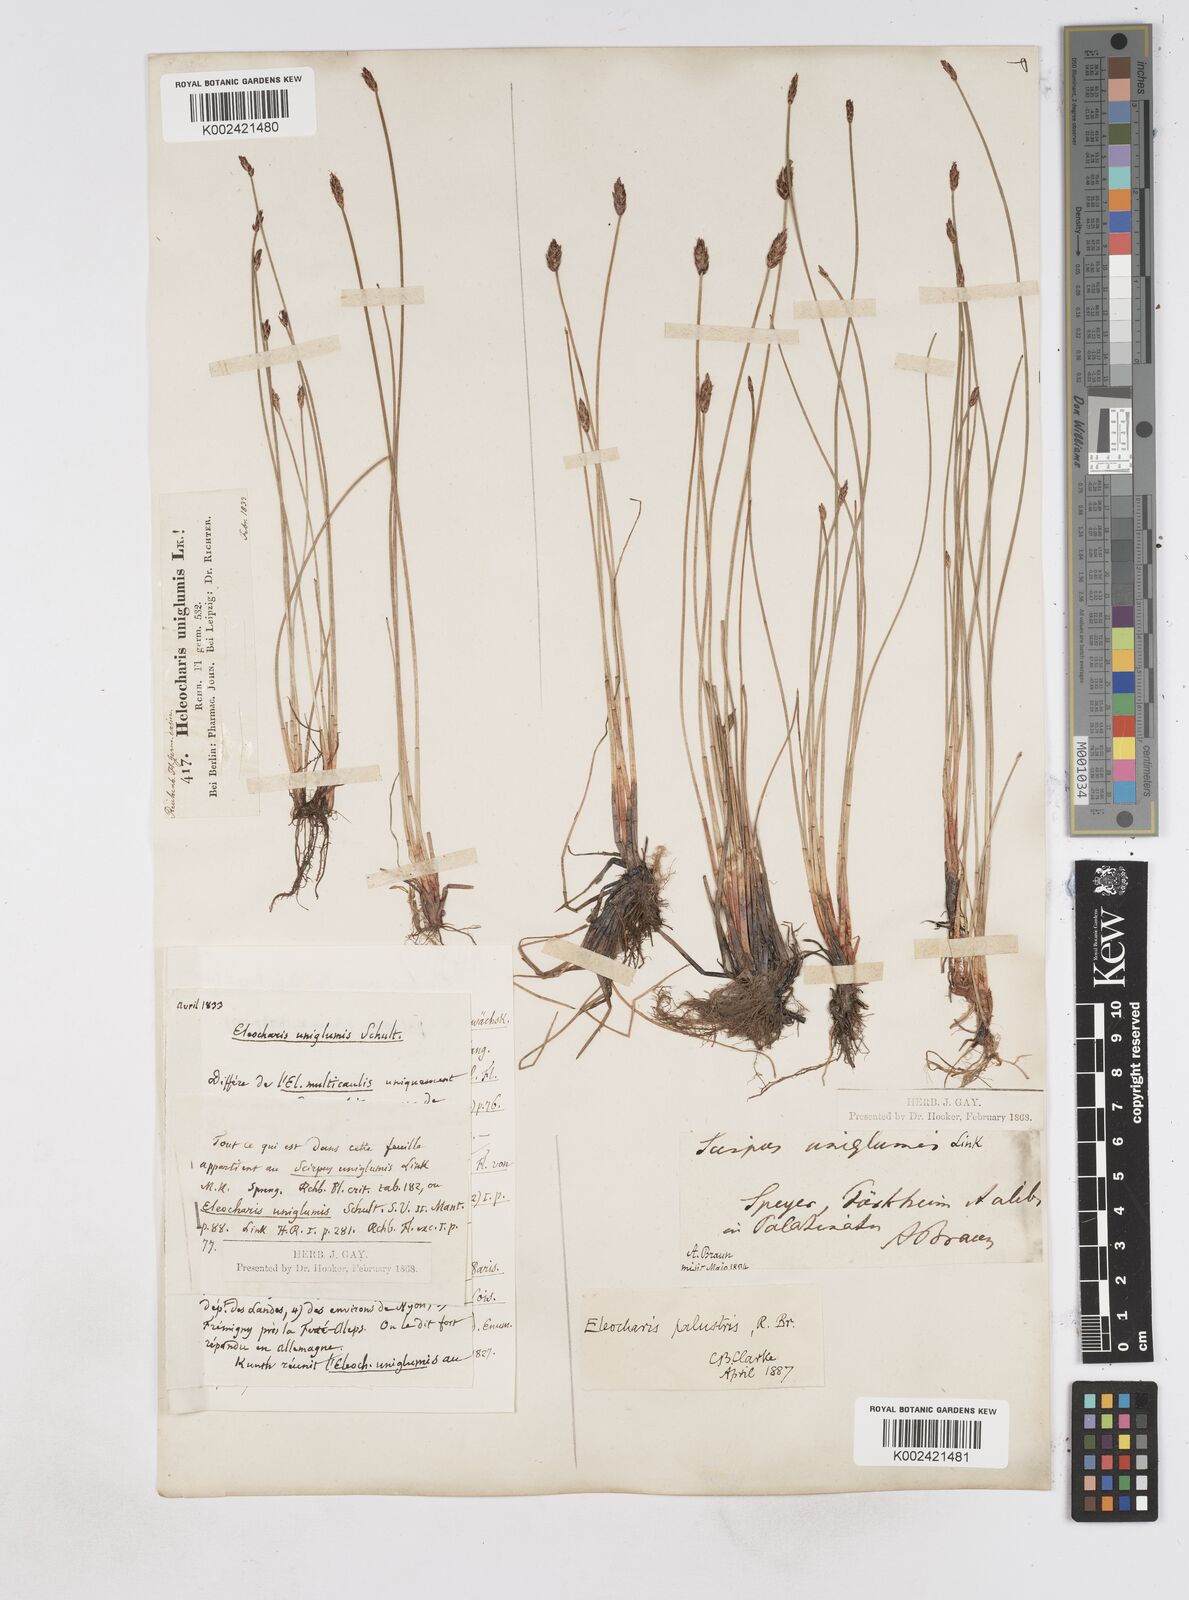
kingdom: Plantae
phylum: Tracheophyta
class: Liliopsida
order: Poales
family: Cyperaceae
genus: Eleocharis
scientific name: Eleocharis uniglumis
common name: Slender spike-rush
